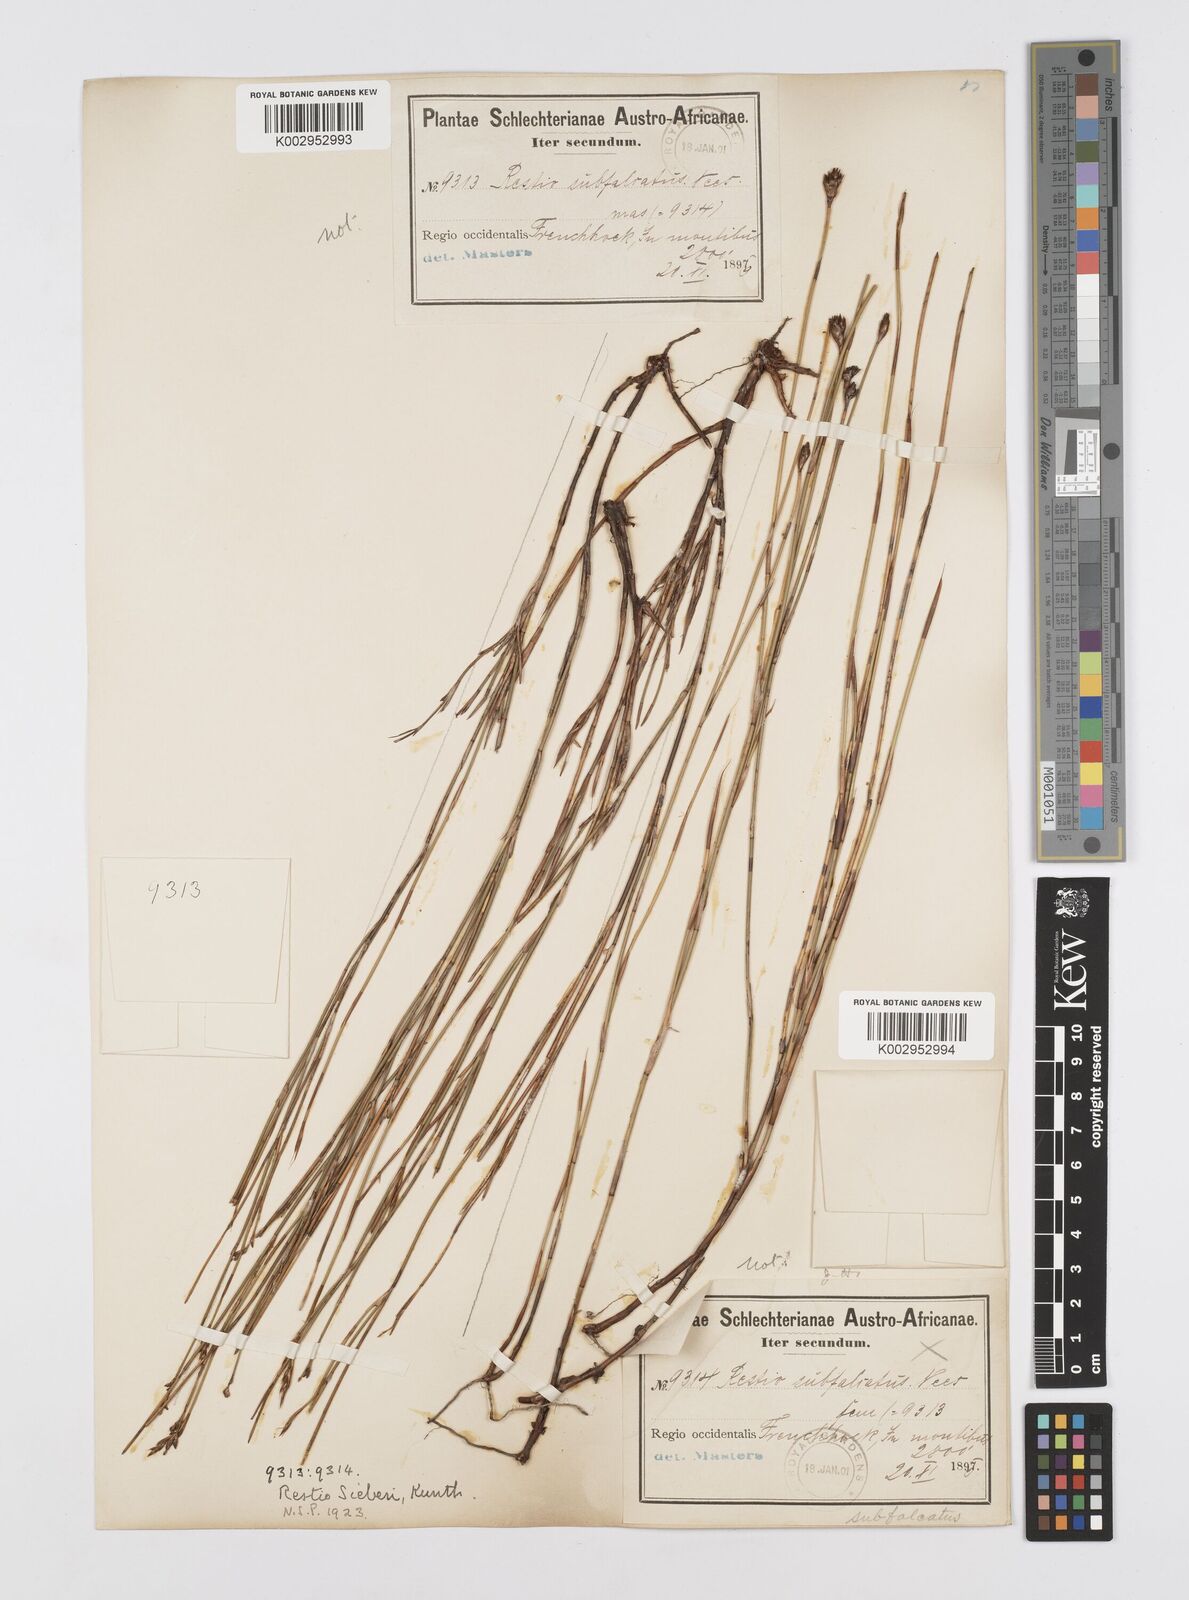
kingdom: Plantae
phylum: Tracheophyta
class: Liliopsida
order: Poales
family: Restionaceae
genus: Restio
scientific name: Restio sieberi
